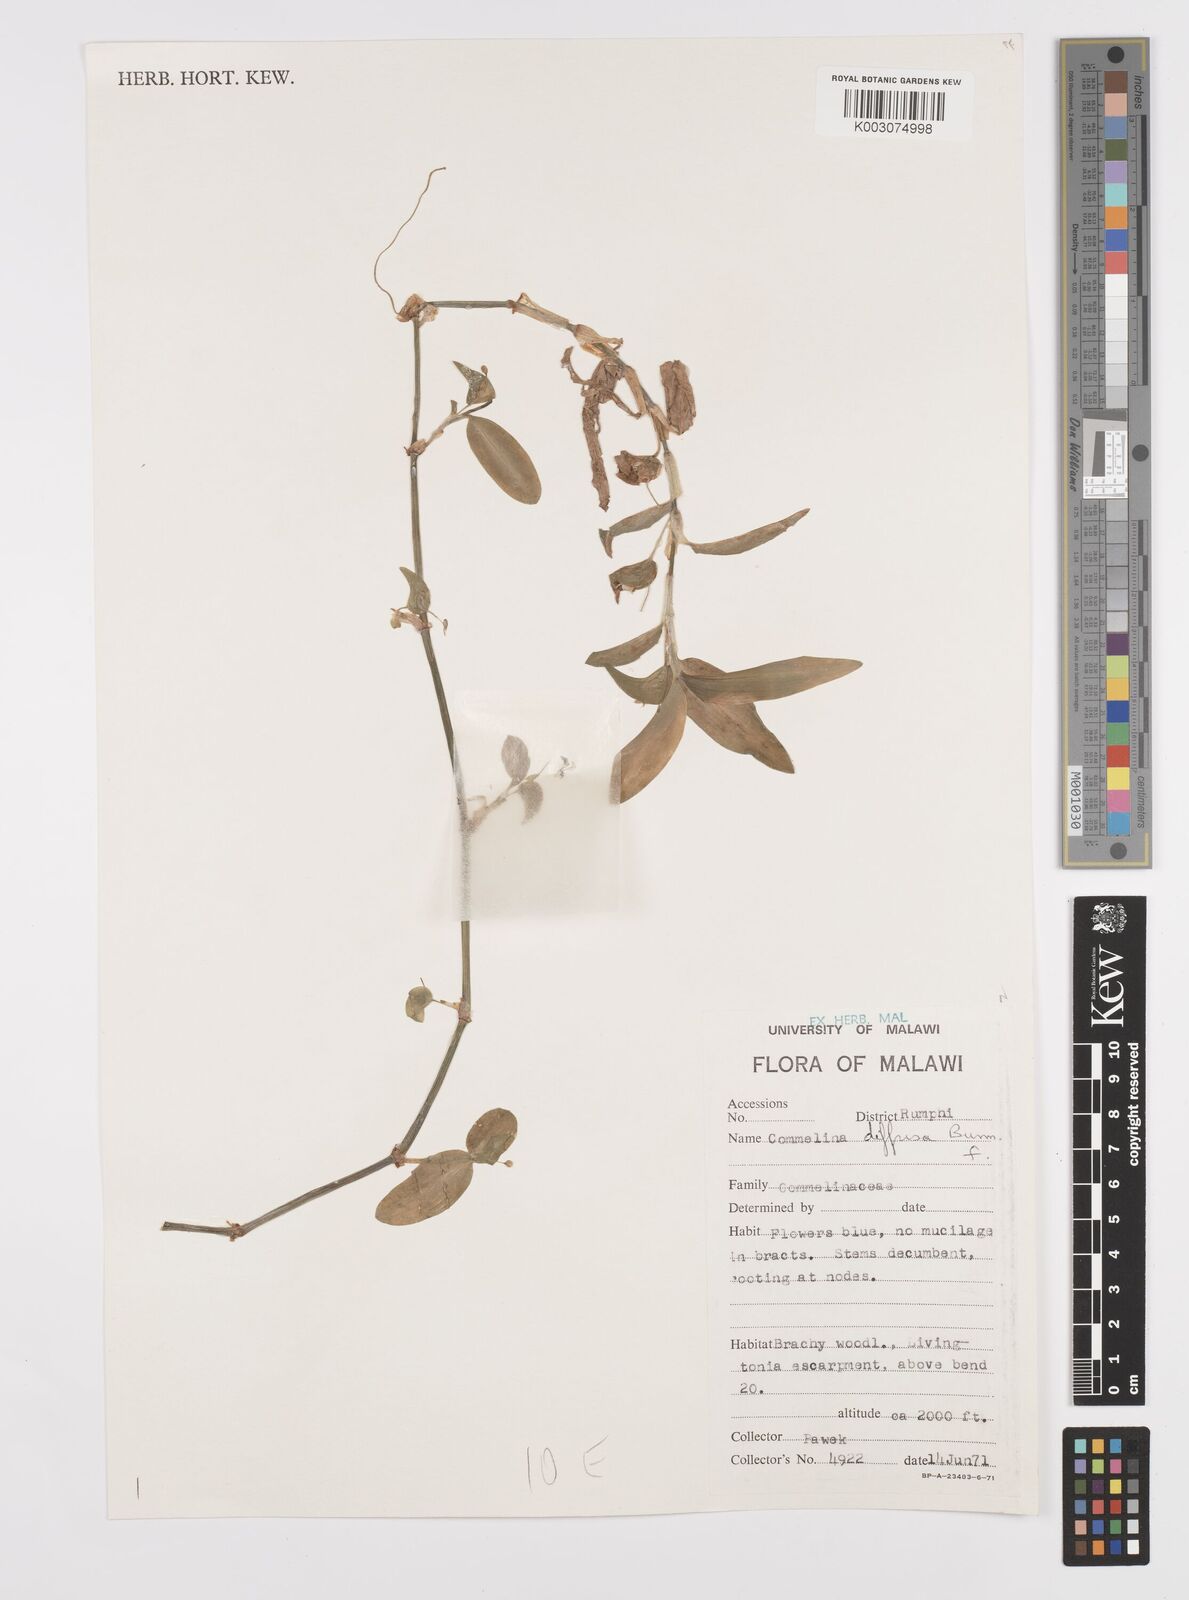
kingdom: Plantae
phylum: Tracheophyta
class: Liliopsida
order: Commelinales
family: Commelinaceae
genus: Commelina
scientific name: Commelina diffusa
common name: Climbing dayflower
